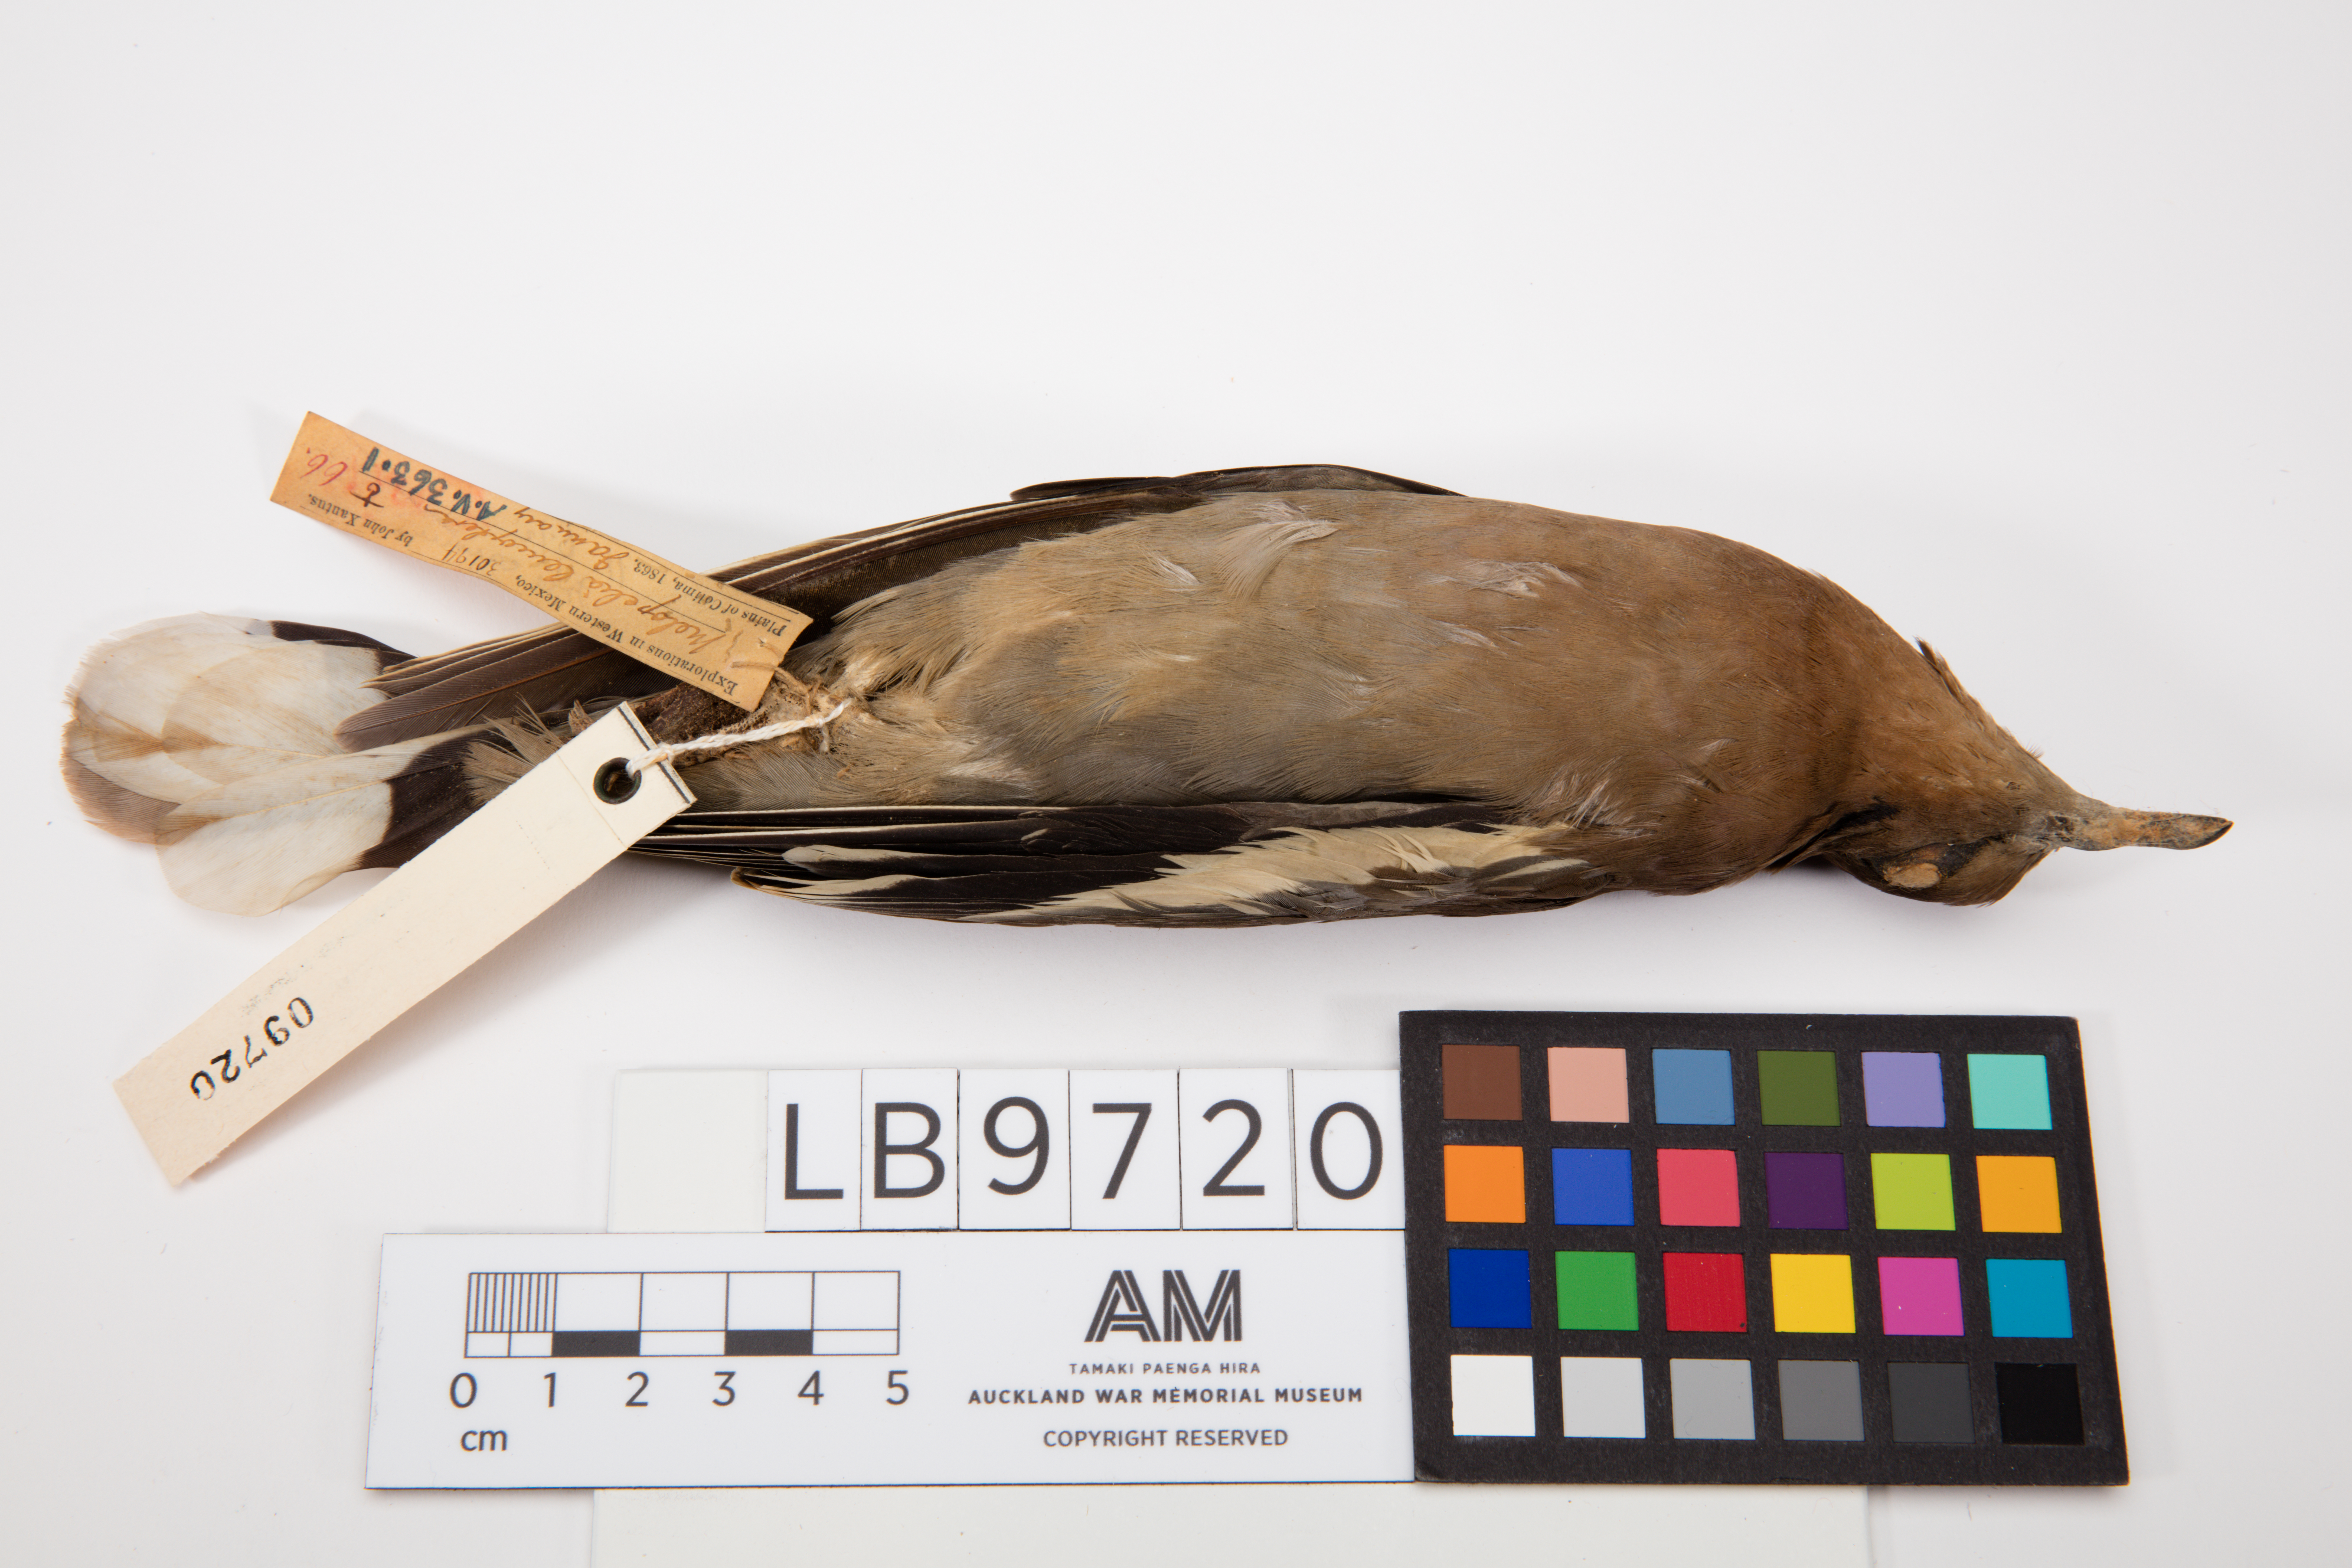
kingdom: Animalia
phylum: Chordata
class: Aves
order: Columbiformes
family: Columbidae
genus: Zenaida
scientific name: Zenaida asiatica
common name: White-winged dove
